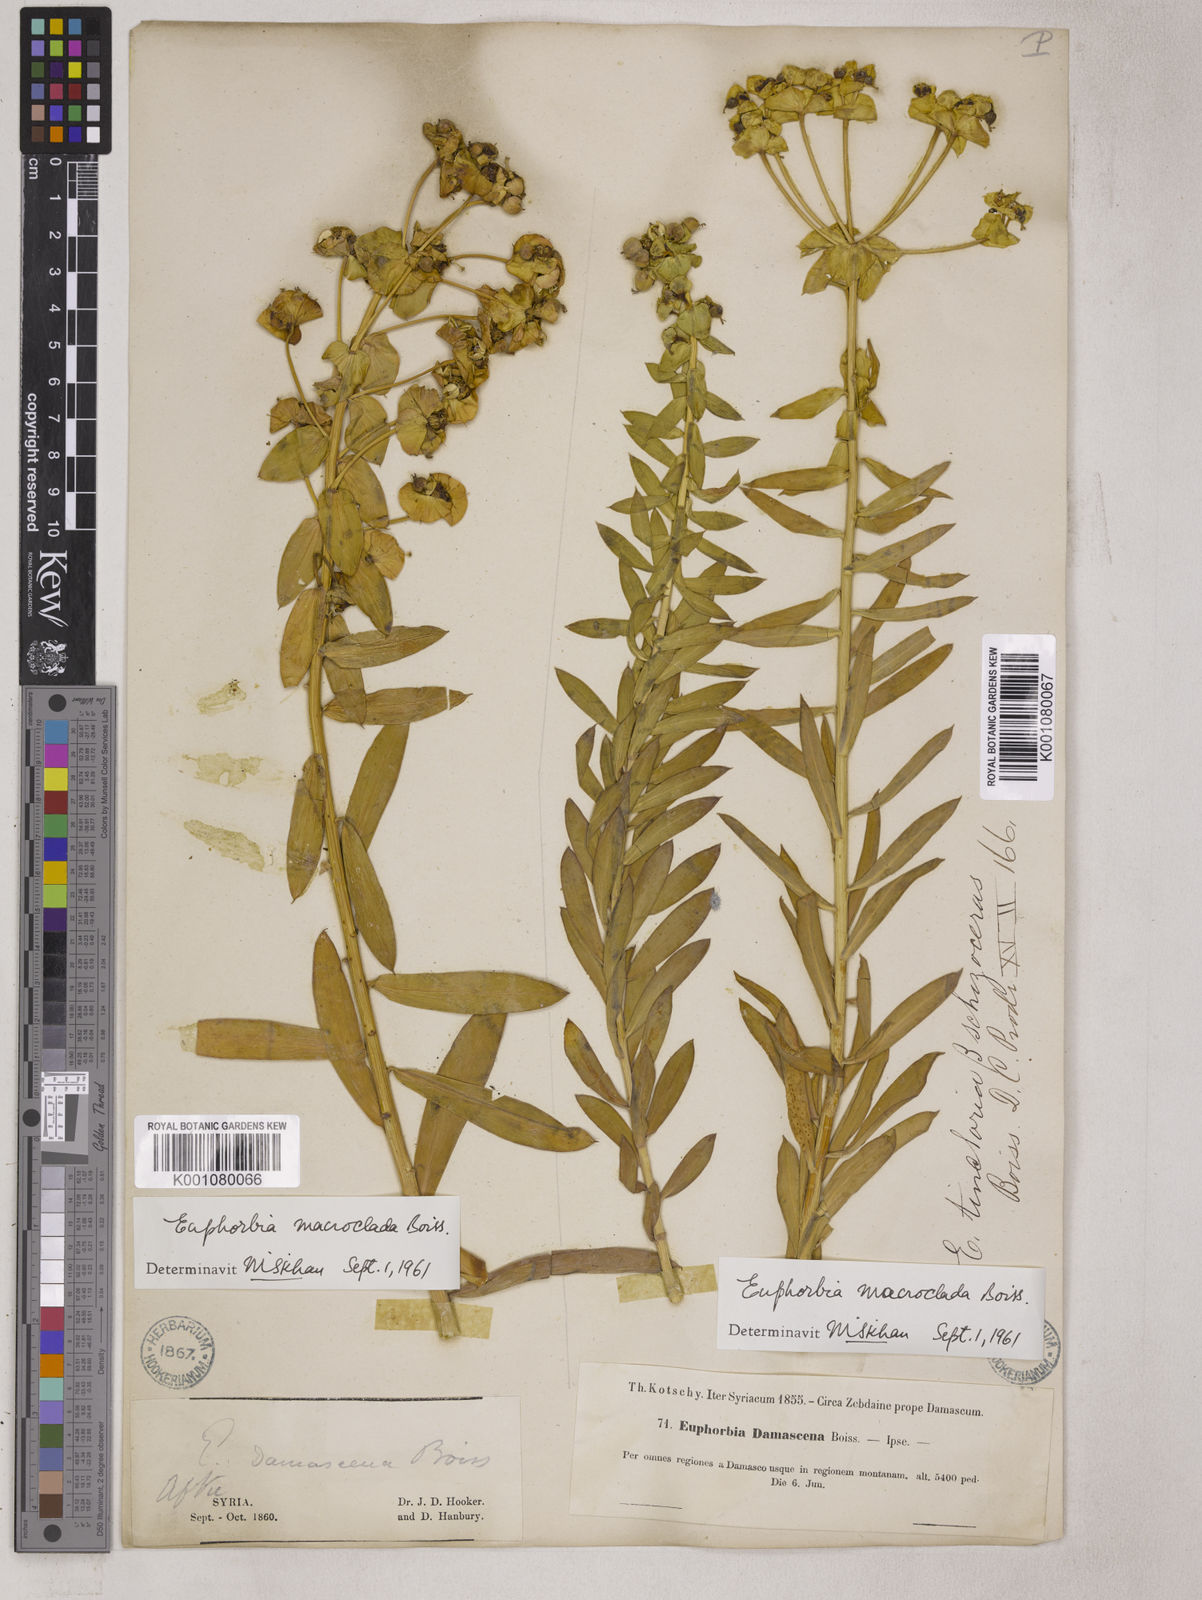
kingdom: Plantae
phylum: Tracheophyta
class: Magnoliopsida
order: Malpighiales
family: Euphorbiaceae
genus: Euphorbia
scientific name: Euphorbia macroclada
